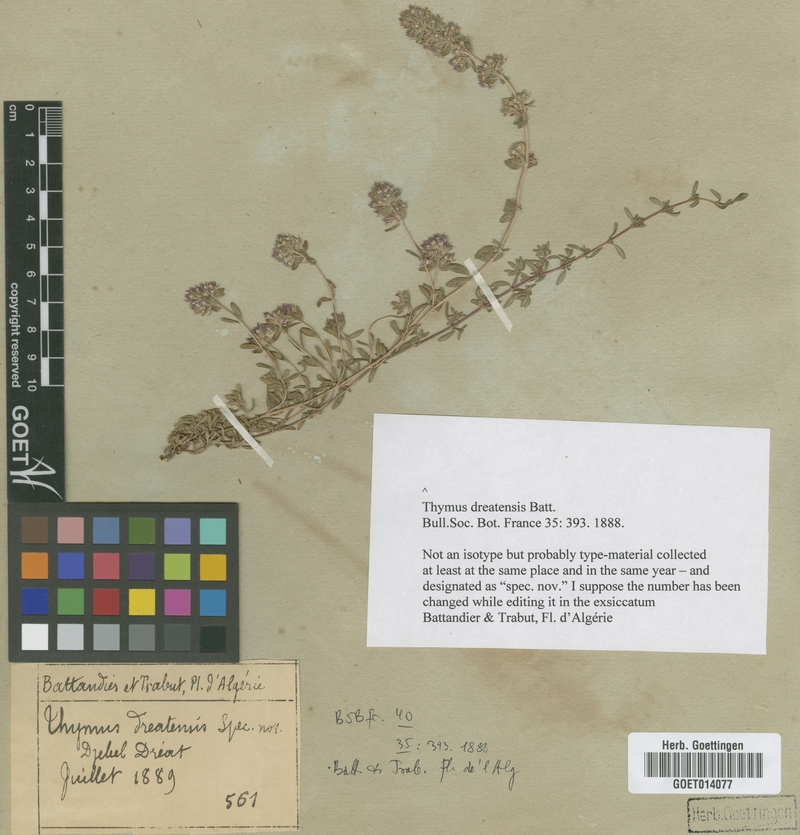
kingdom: Plantae
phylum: Tracheophyta
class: Magnoliopsida
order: Lamiales
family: Lamiaceae
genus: Thymus
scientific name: Thymus dreatensis
